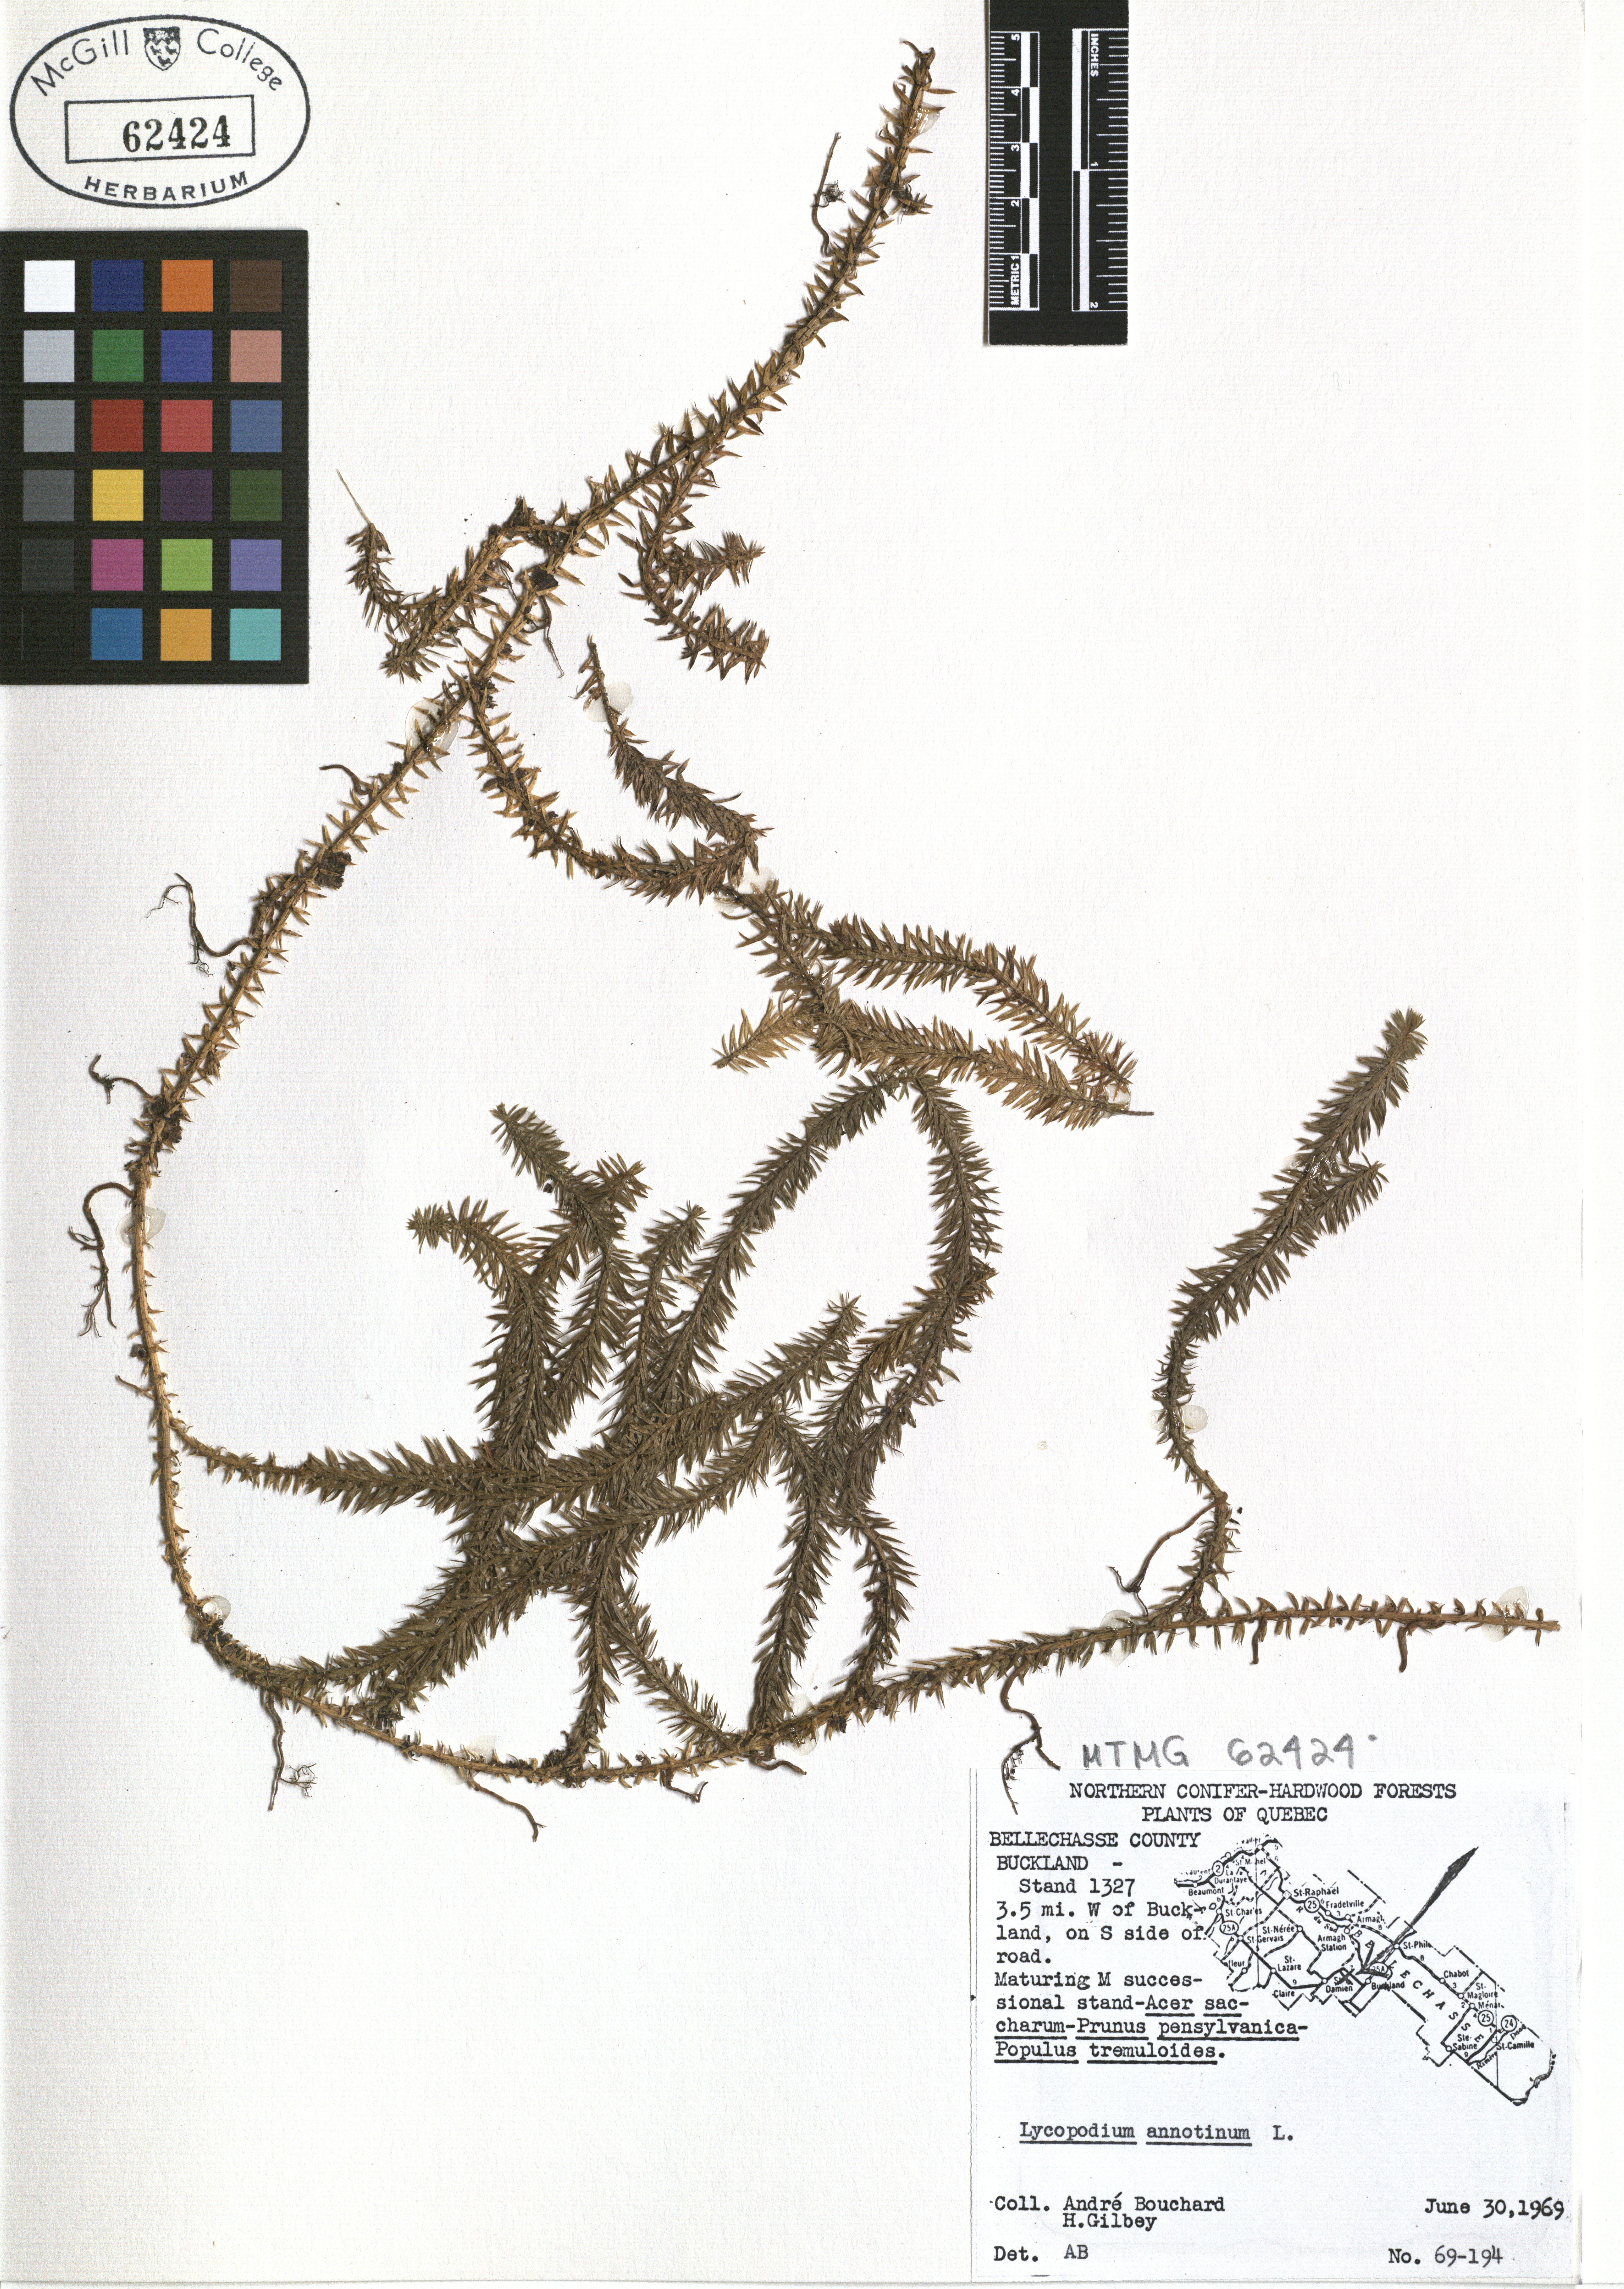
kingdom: Plantae
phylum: Tracheophyta
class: Lycopodiopsida
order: Lycopodiales
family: Lycopodiaceae
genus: Spinulum
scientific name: Spinulum annotinum
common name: Interrupted club-moss
